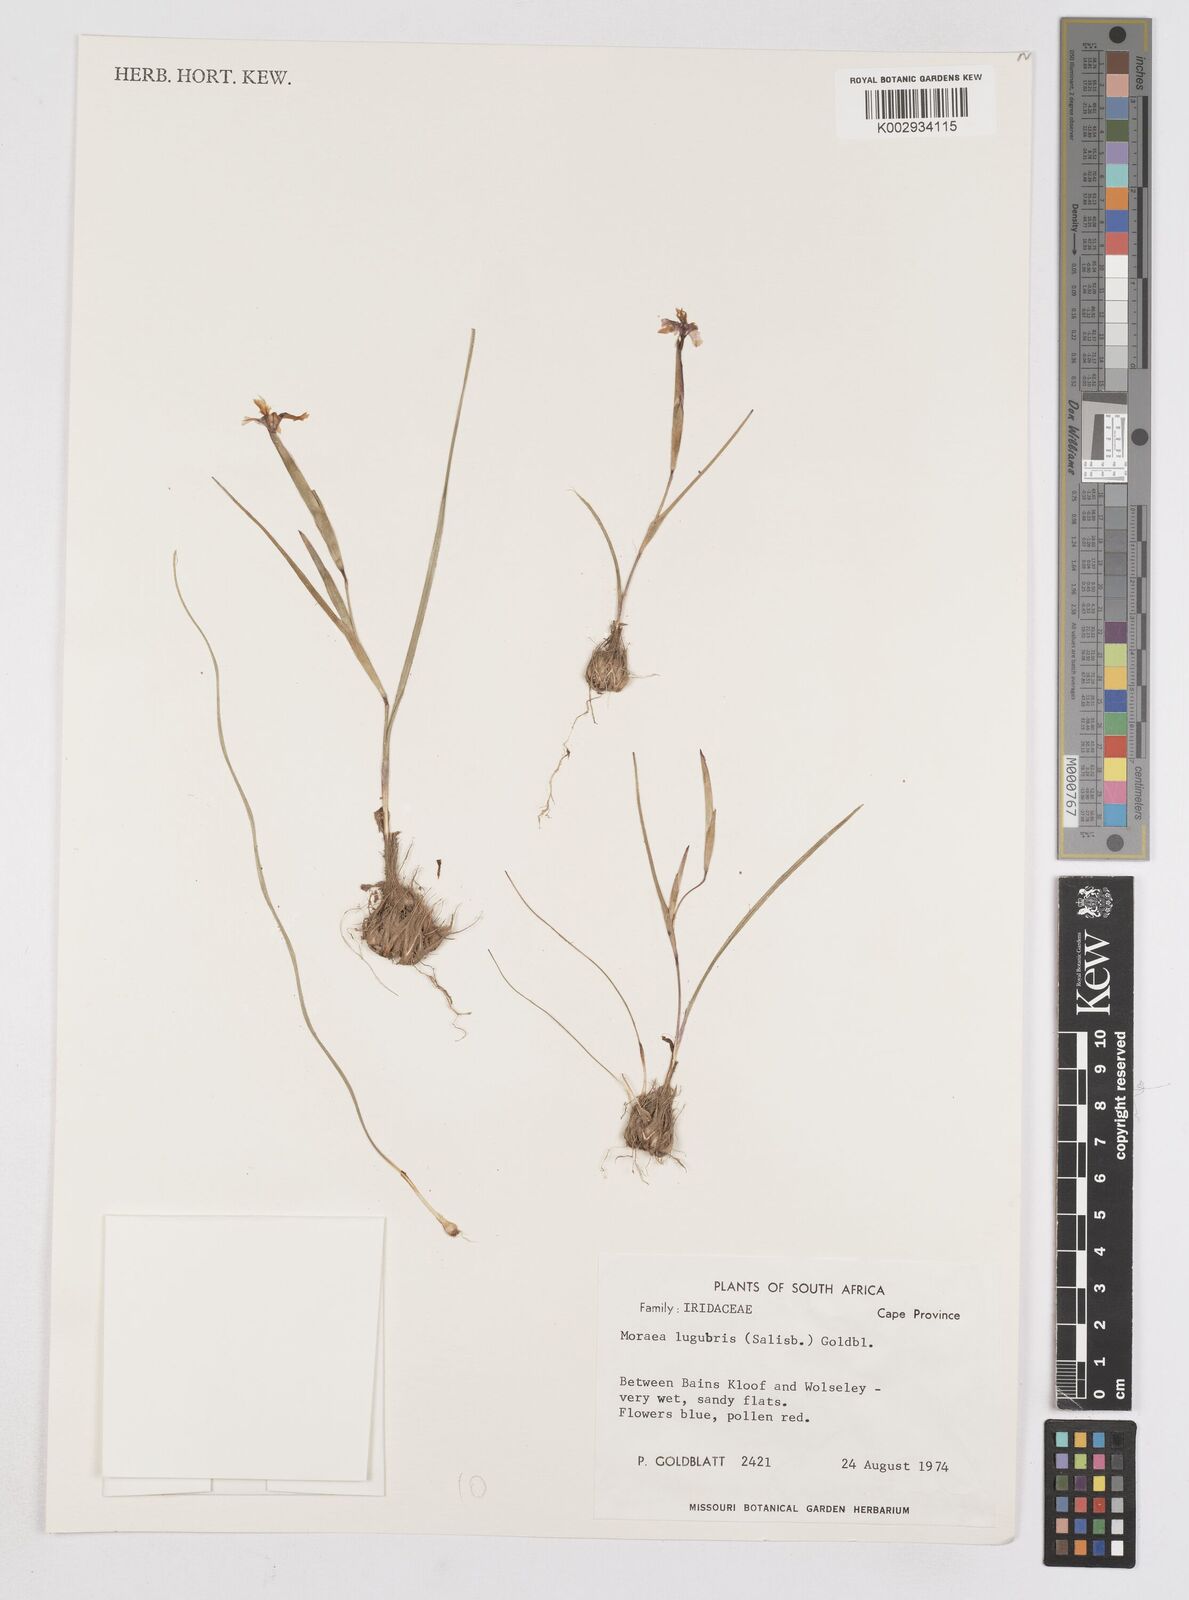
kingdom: Plantae
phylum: Tracheophyta
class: Liliopsida
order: Asparagales
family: Iridaceae
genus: Moraea
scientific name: Moraea lugubris
